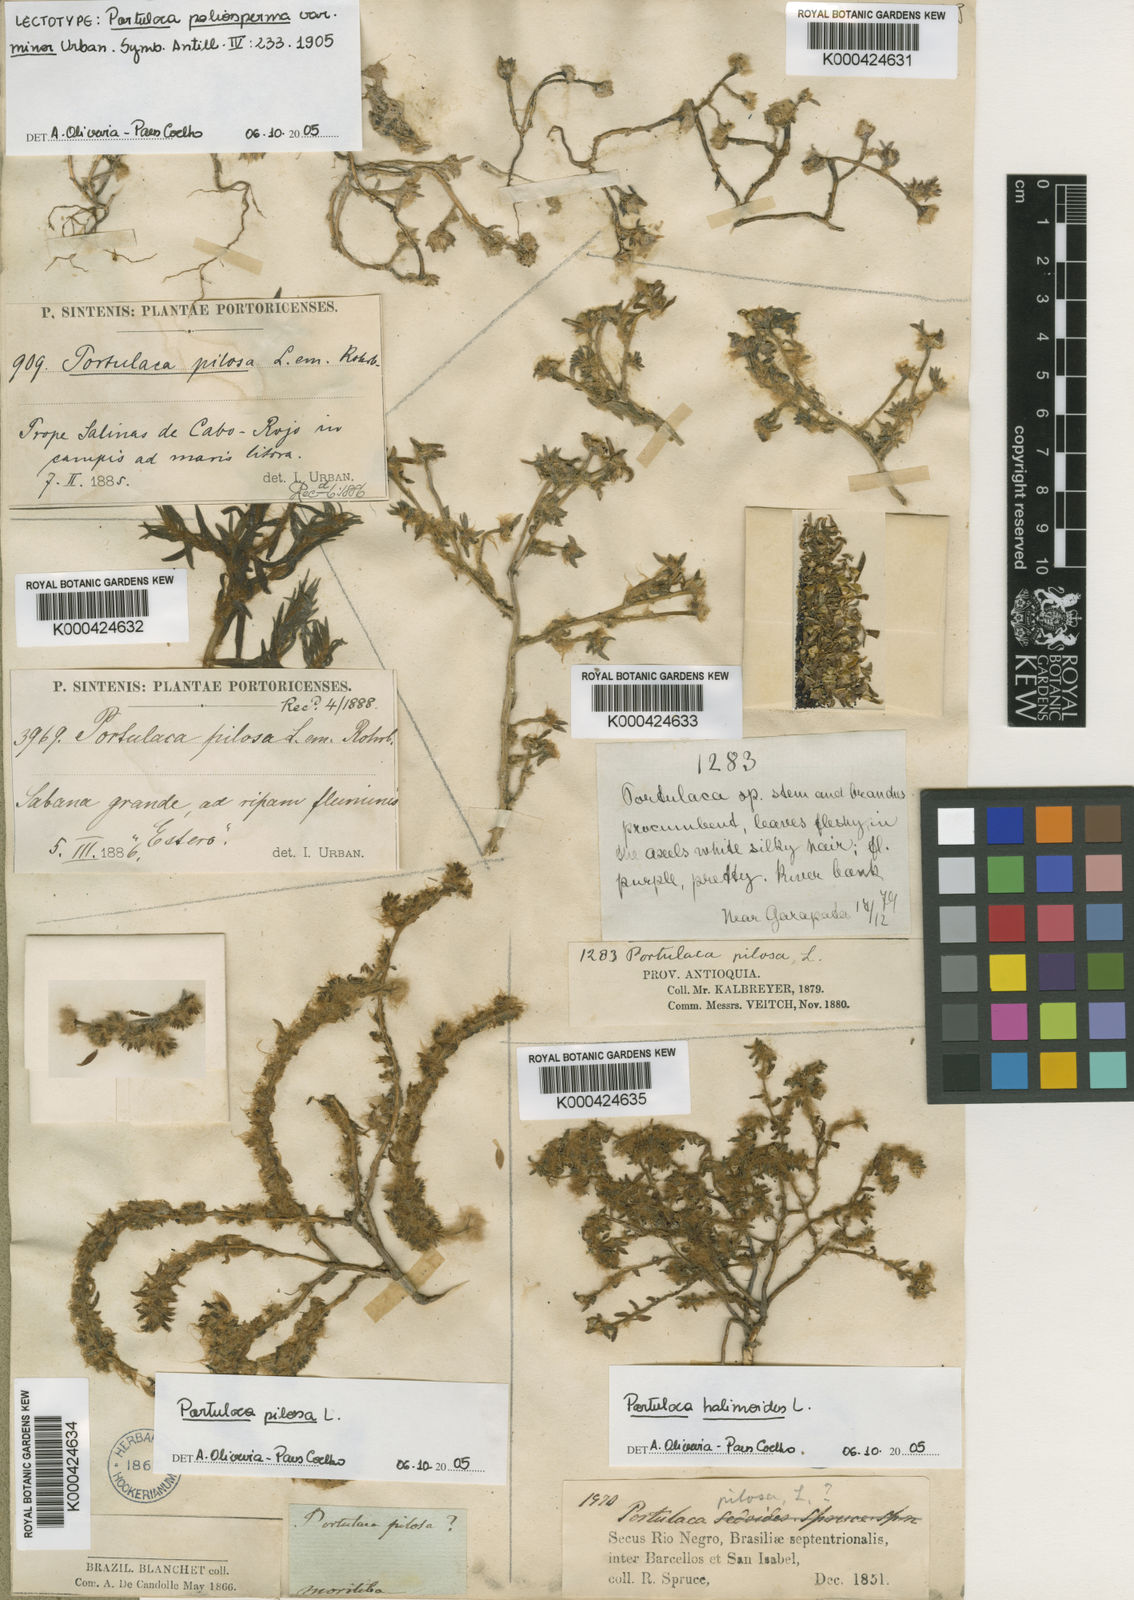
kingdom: Plantae
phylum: Tracheophyta
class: Magnoliopsida
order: Caryophyllales
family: Portulacaceae
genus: Portulaca
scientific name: Portulaca teretifolia
